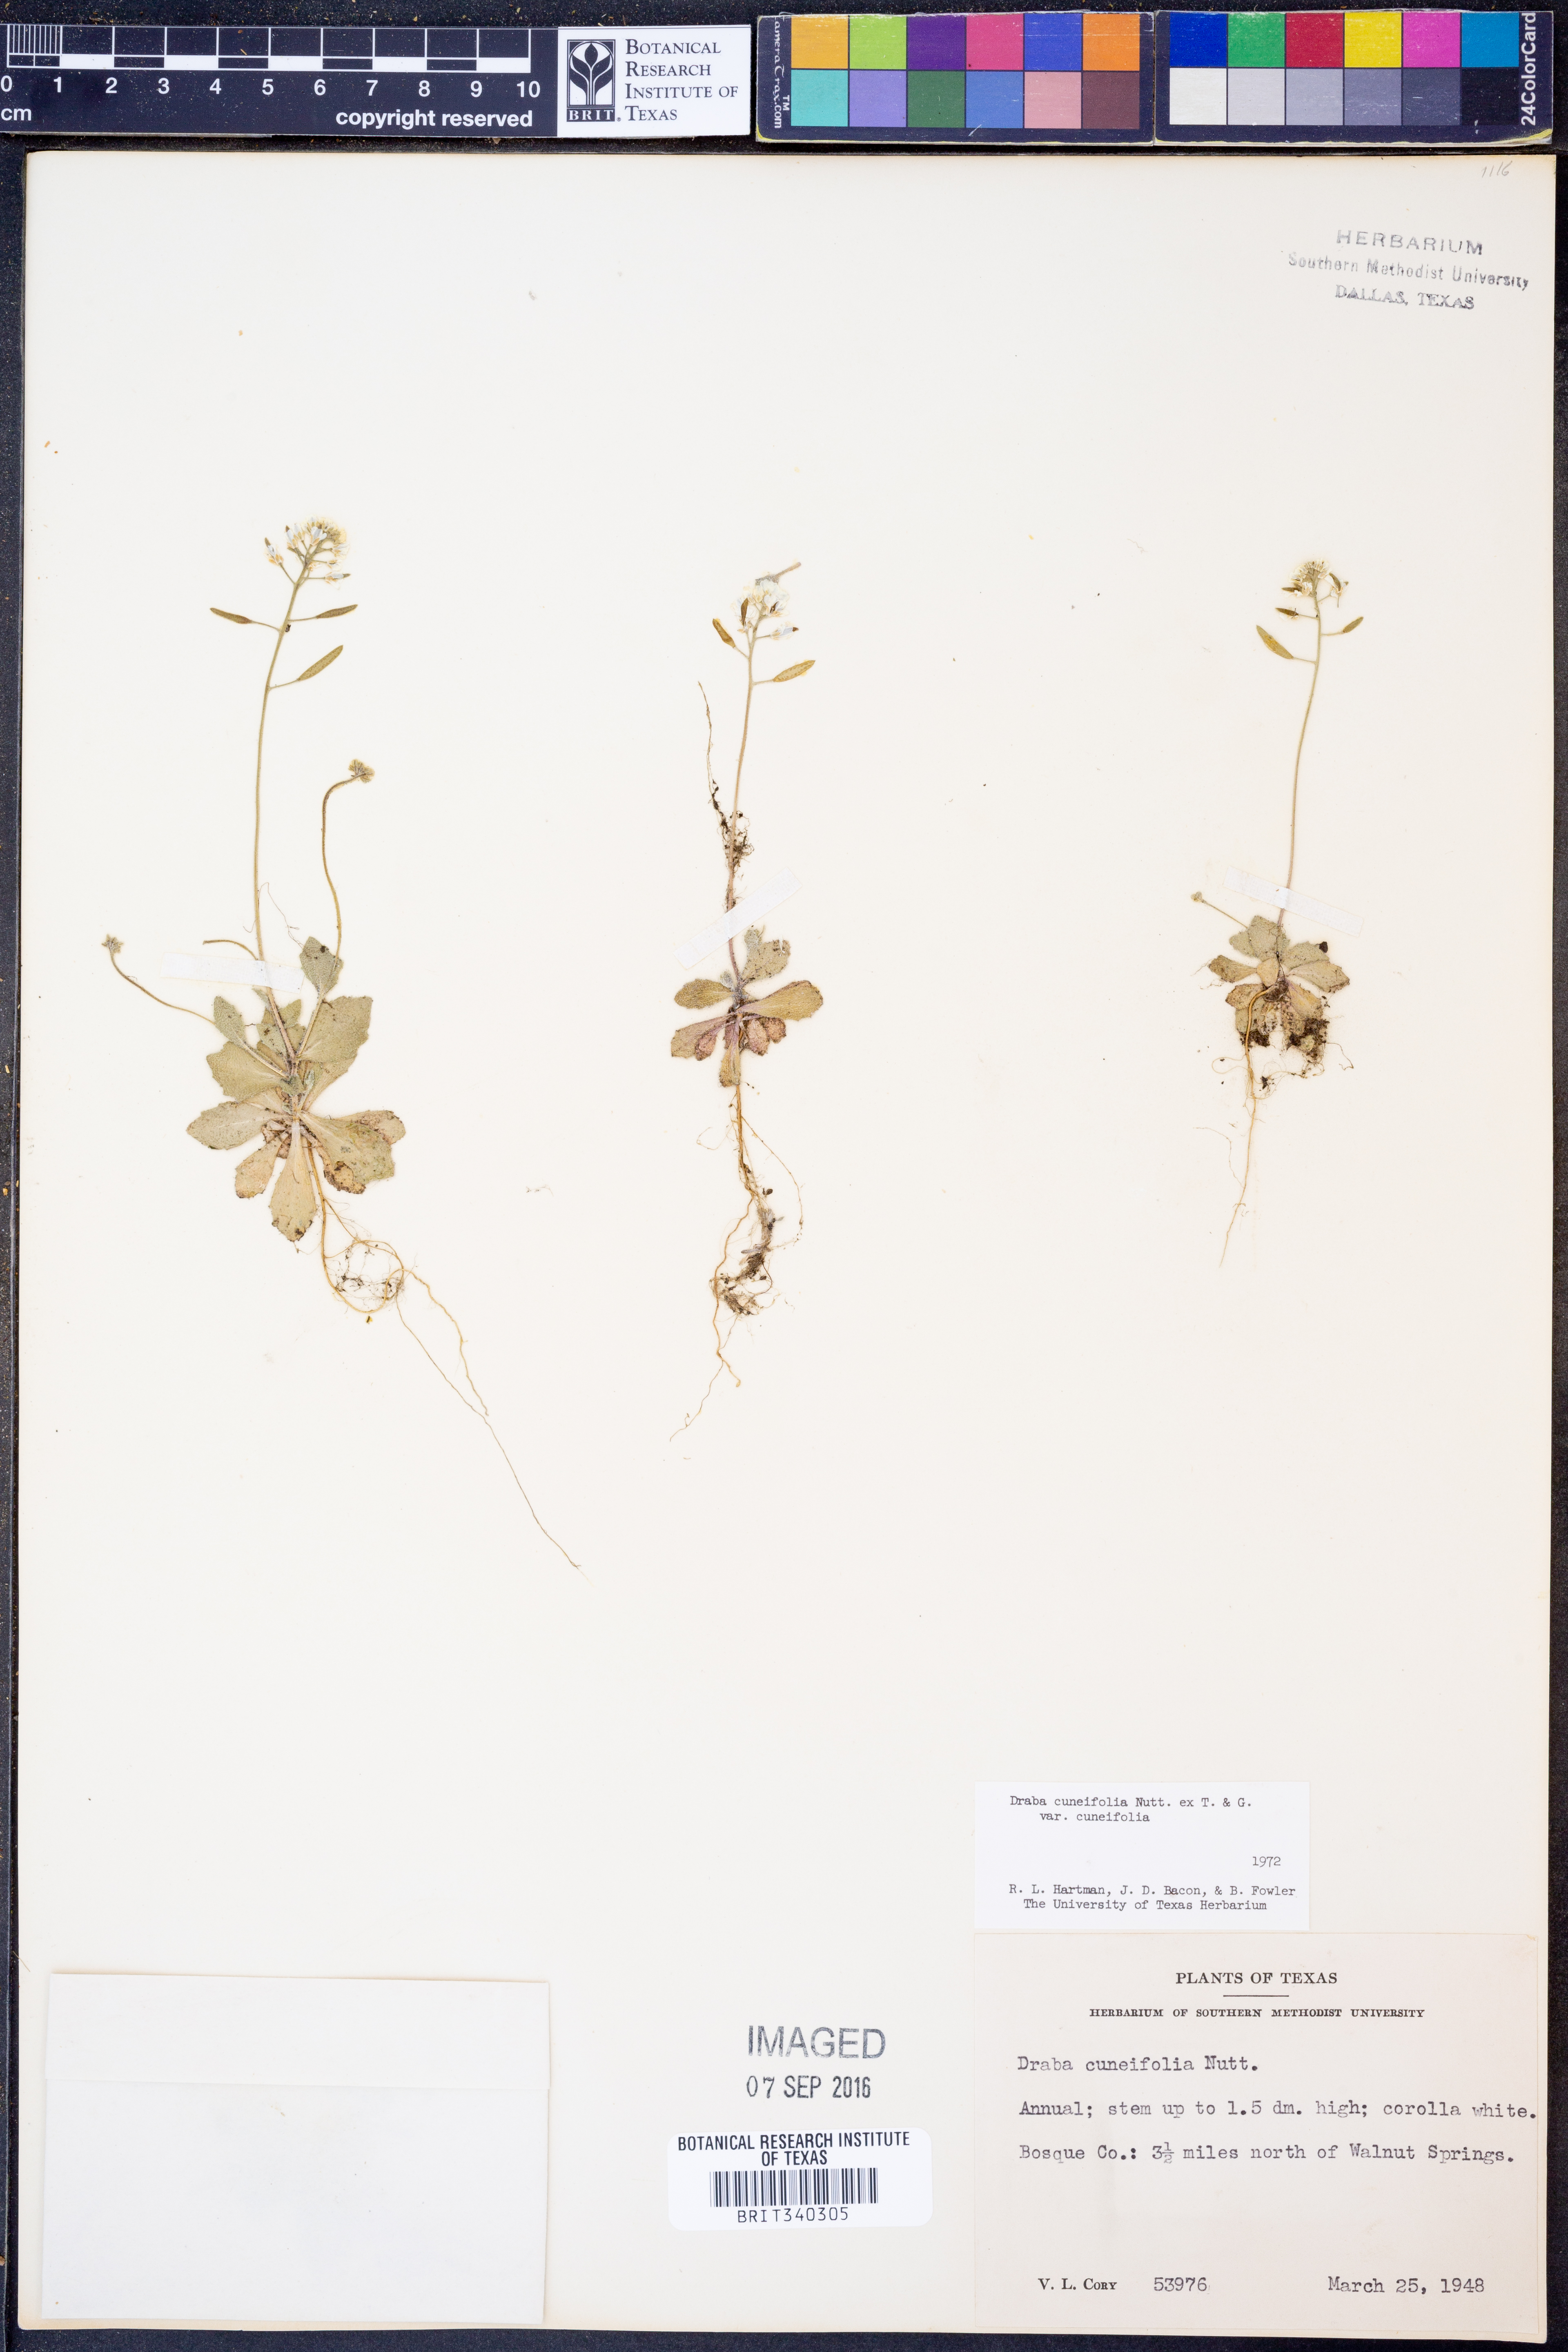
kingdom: Plantae
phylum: Tracheophyta
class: Magnoliopsida
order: Brassicales
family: Brassicaceae
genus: Tomostima
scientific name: Tomostima cuneifolia
